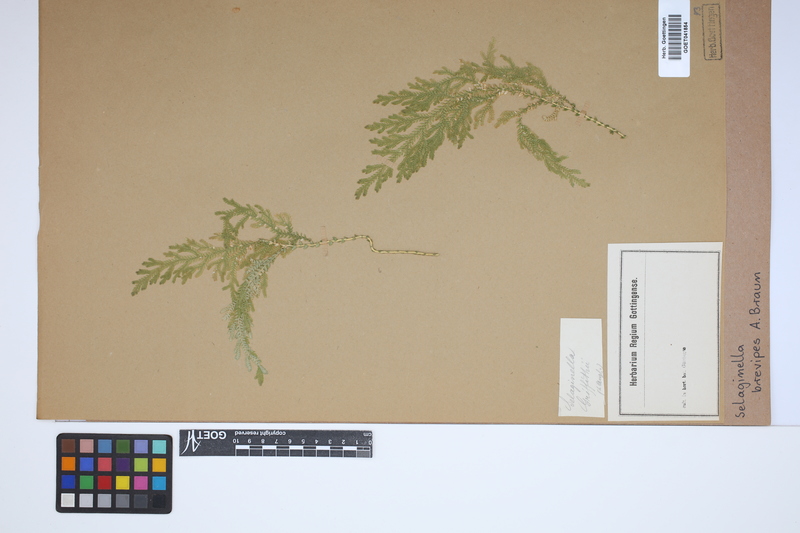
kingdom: Plantae
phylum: Tracheophyta
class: Lycopodiopsida
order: Selaginellales
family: Selaginellaceae
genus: Selaginella
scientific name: Selaginella brevipes
